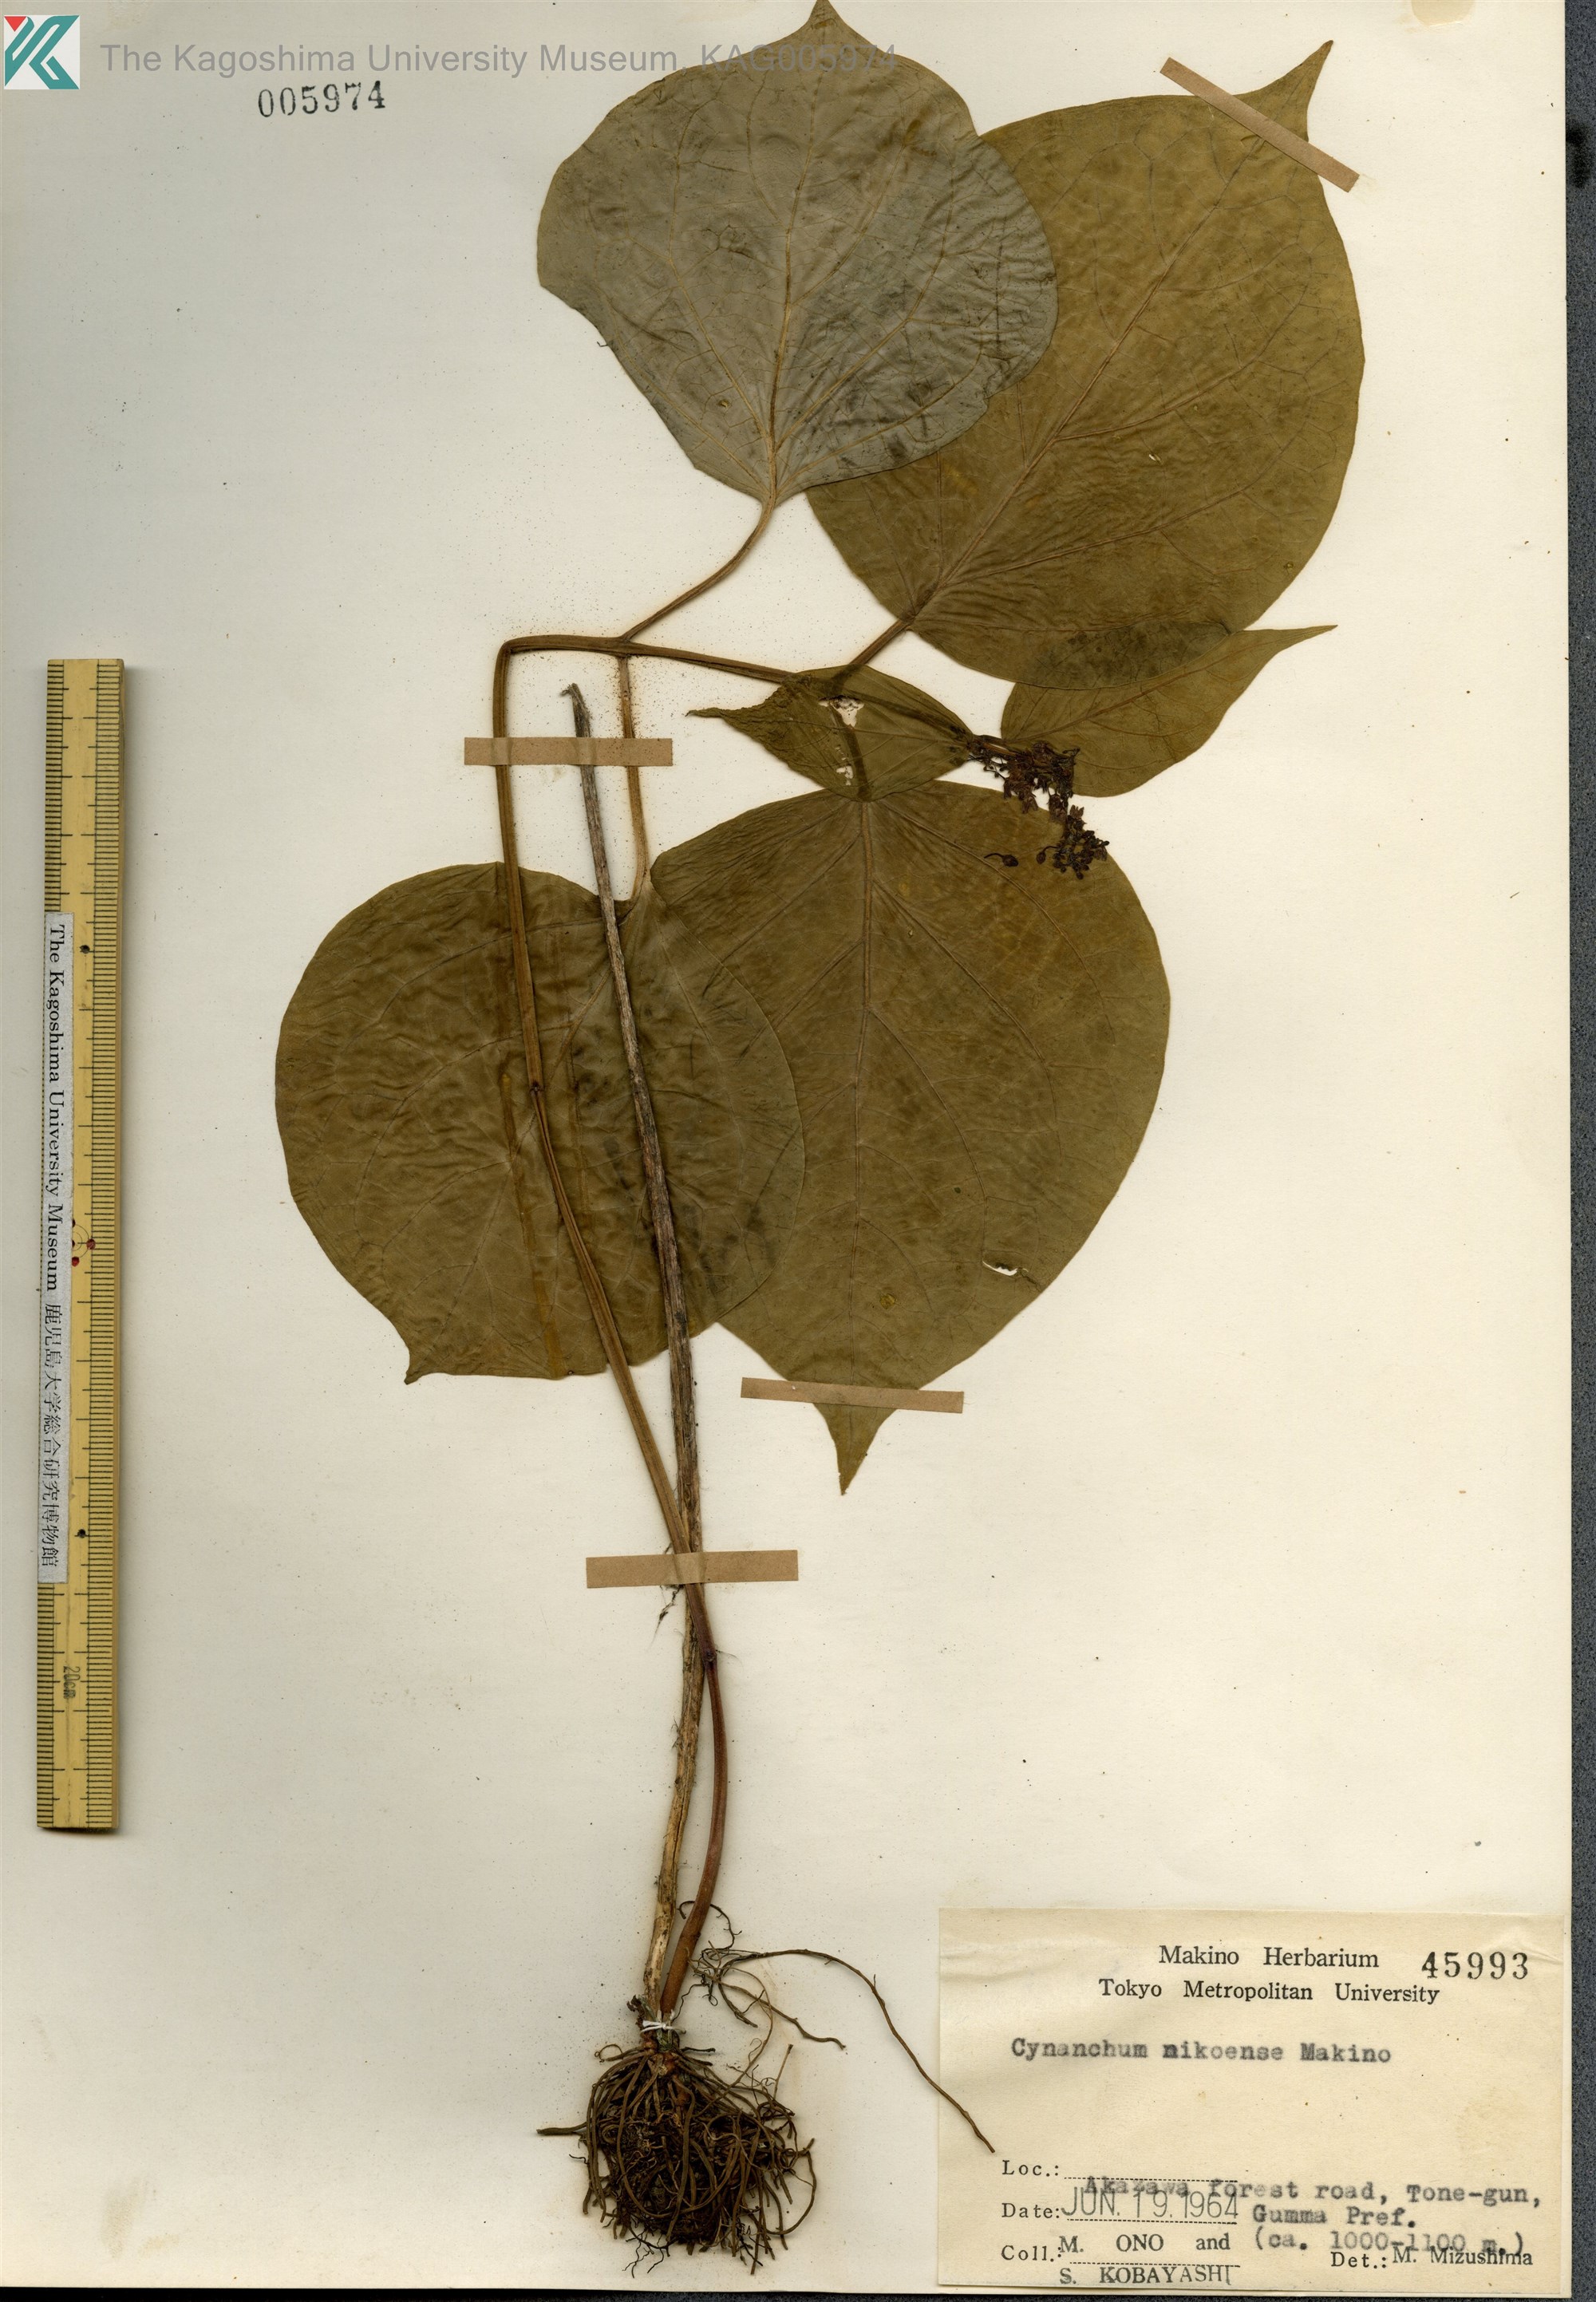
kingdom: Plantae
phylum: Tracheophyta
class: Magnoliopsida
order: Gentianales
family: Apocynaceae
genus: Vincetoxicum
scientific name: Vincetoxicum inamoenum
